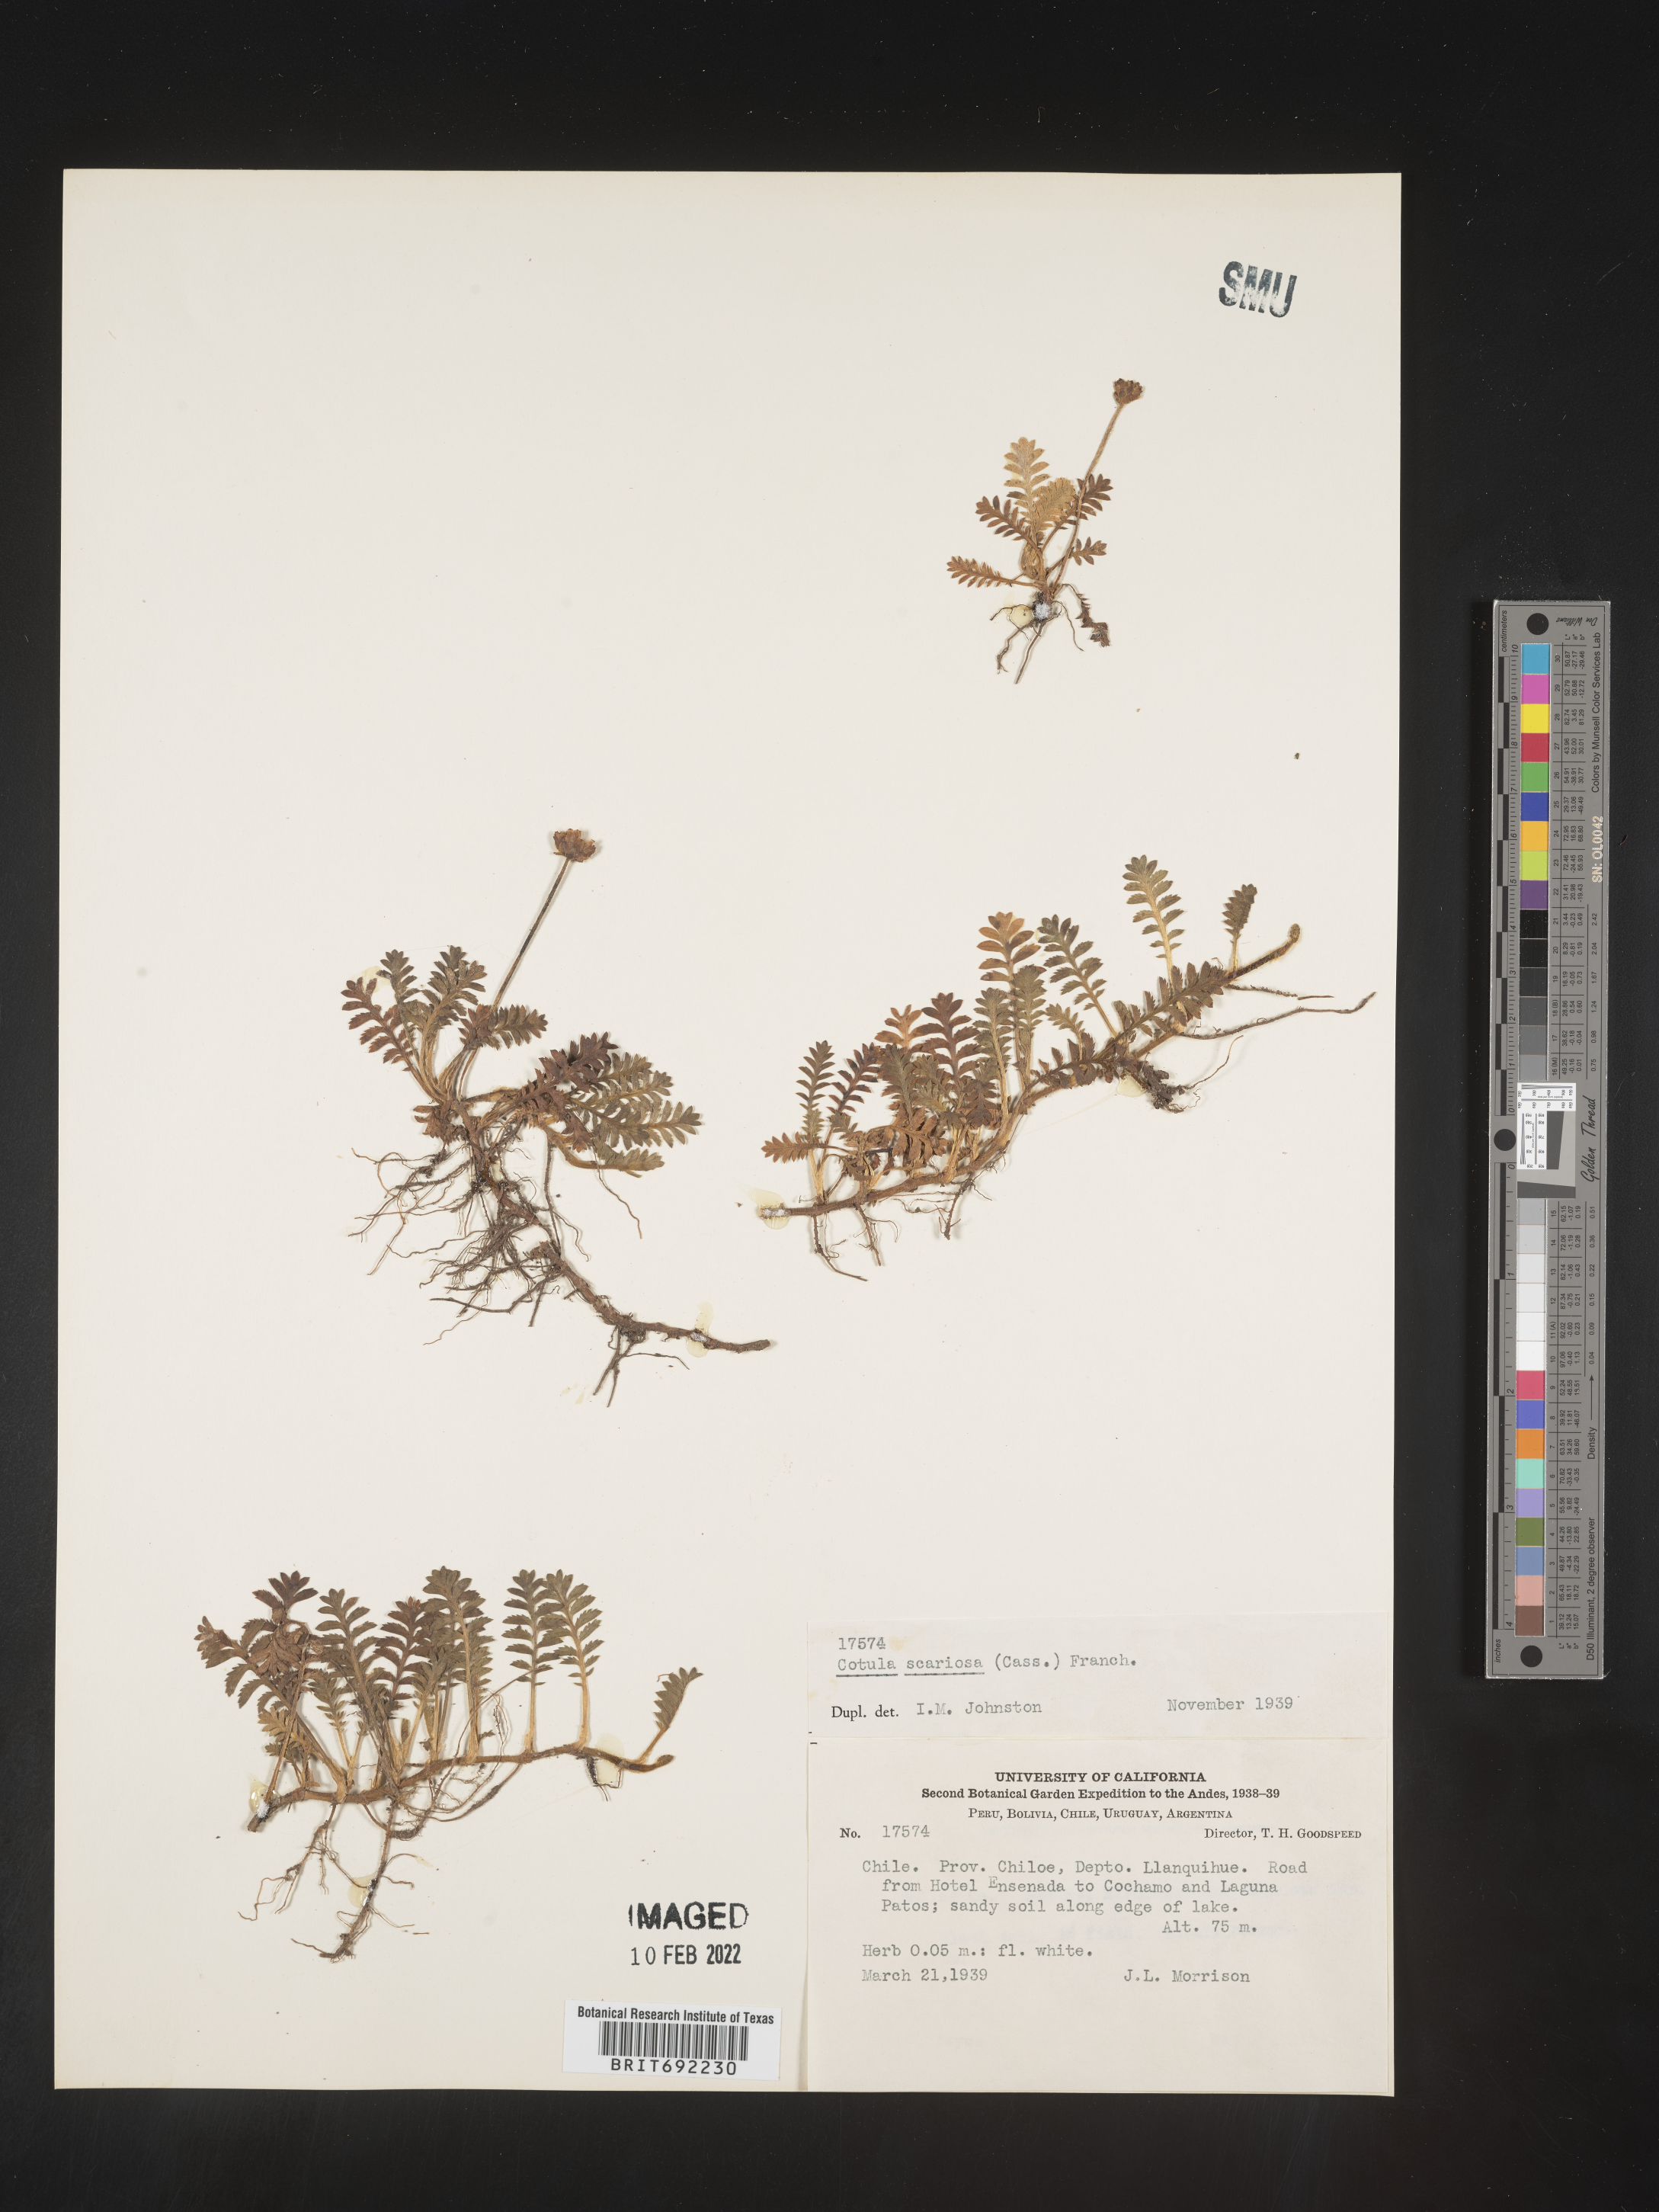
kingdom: Plantae
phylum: Tracheophyta
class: Magnoliopsida
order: Asterales
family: Asteraceae
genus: Cotula
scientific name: Cotula
